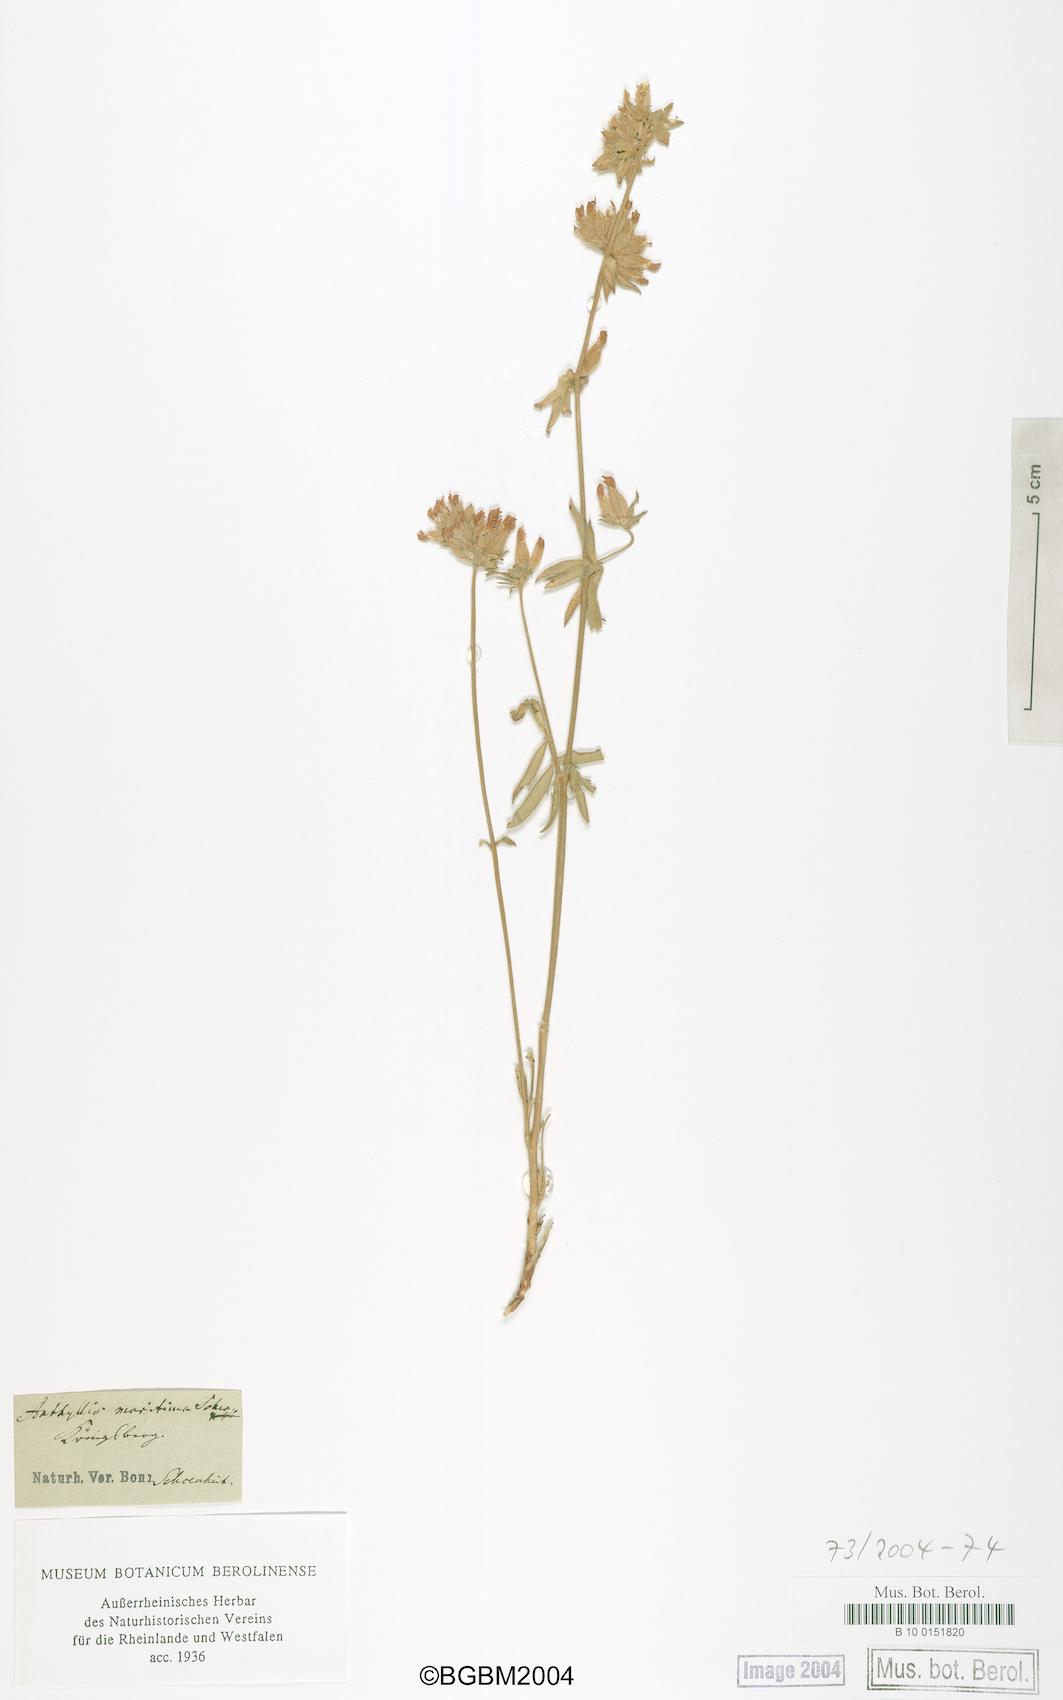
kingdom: Plantae
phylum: Tracheophyta
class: Magnoliopsida
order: Fabales
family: Fabaceae
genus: Anthyllis
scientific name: Anthyllis vulneraria
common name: Kidney vetch
